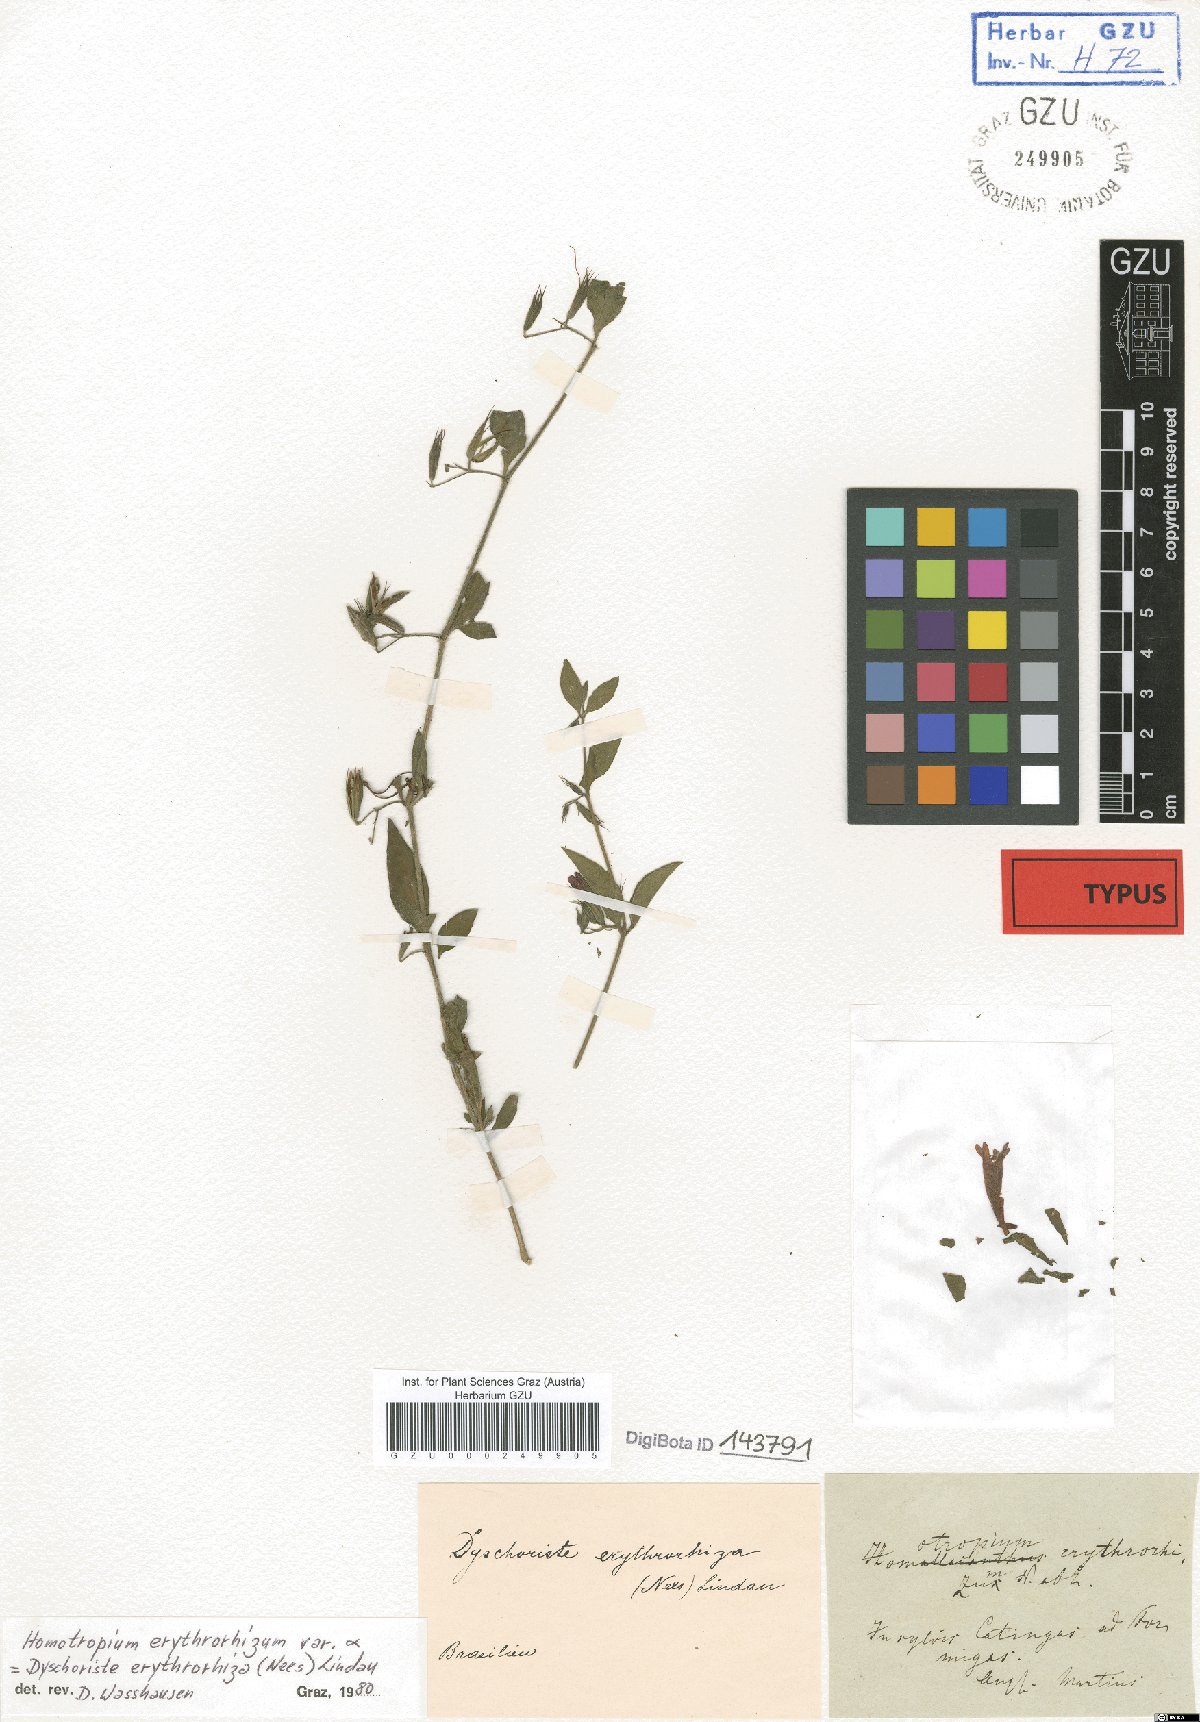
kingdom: Plantae
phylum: Tracheophyta
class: Magnoliopsida
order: Lamiales
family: Acanthaceae
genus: Dyschoriste
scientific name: Dyschoriste erythrorhiza
